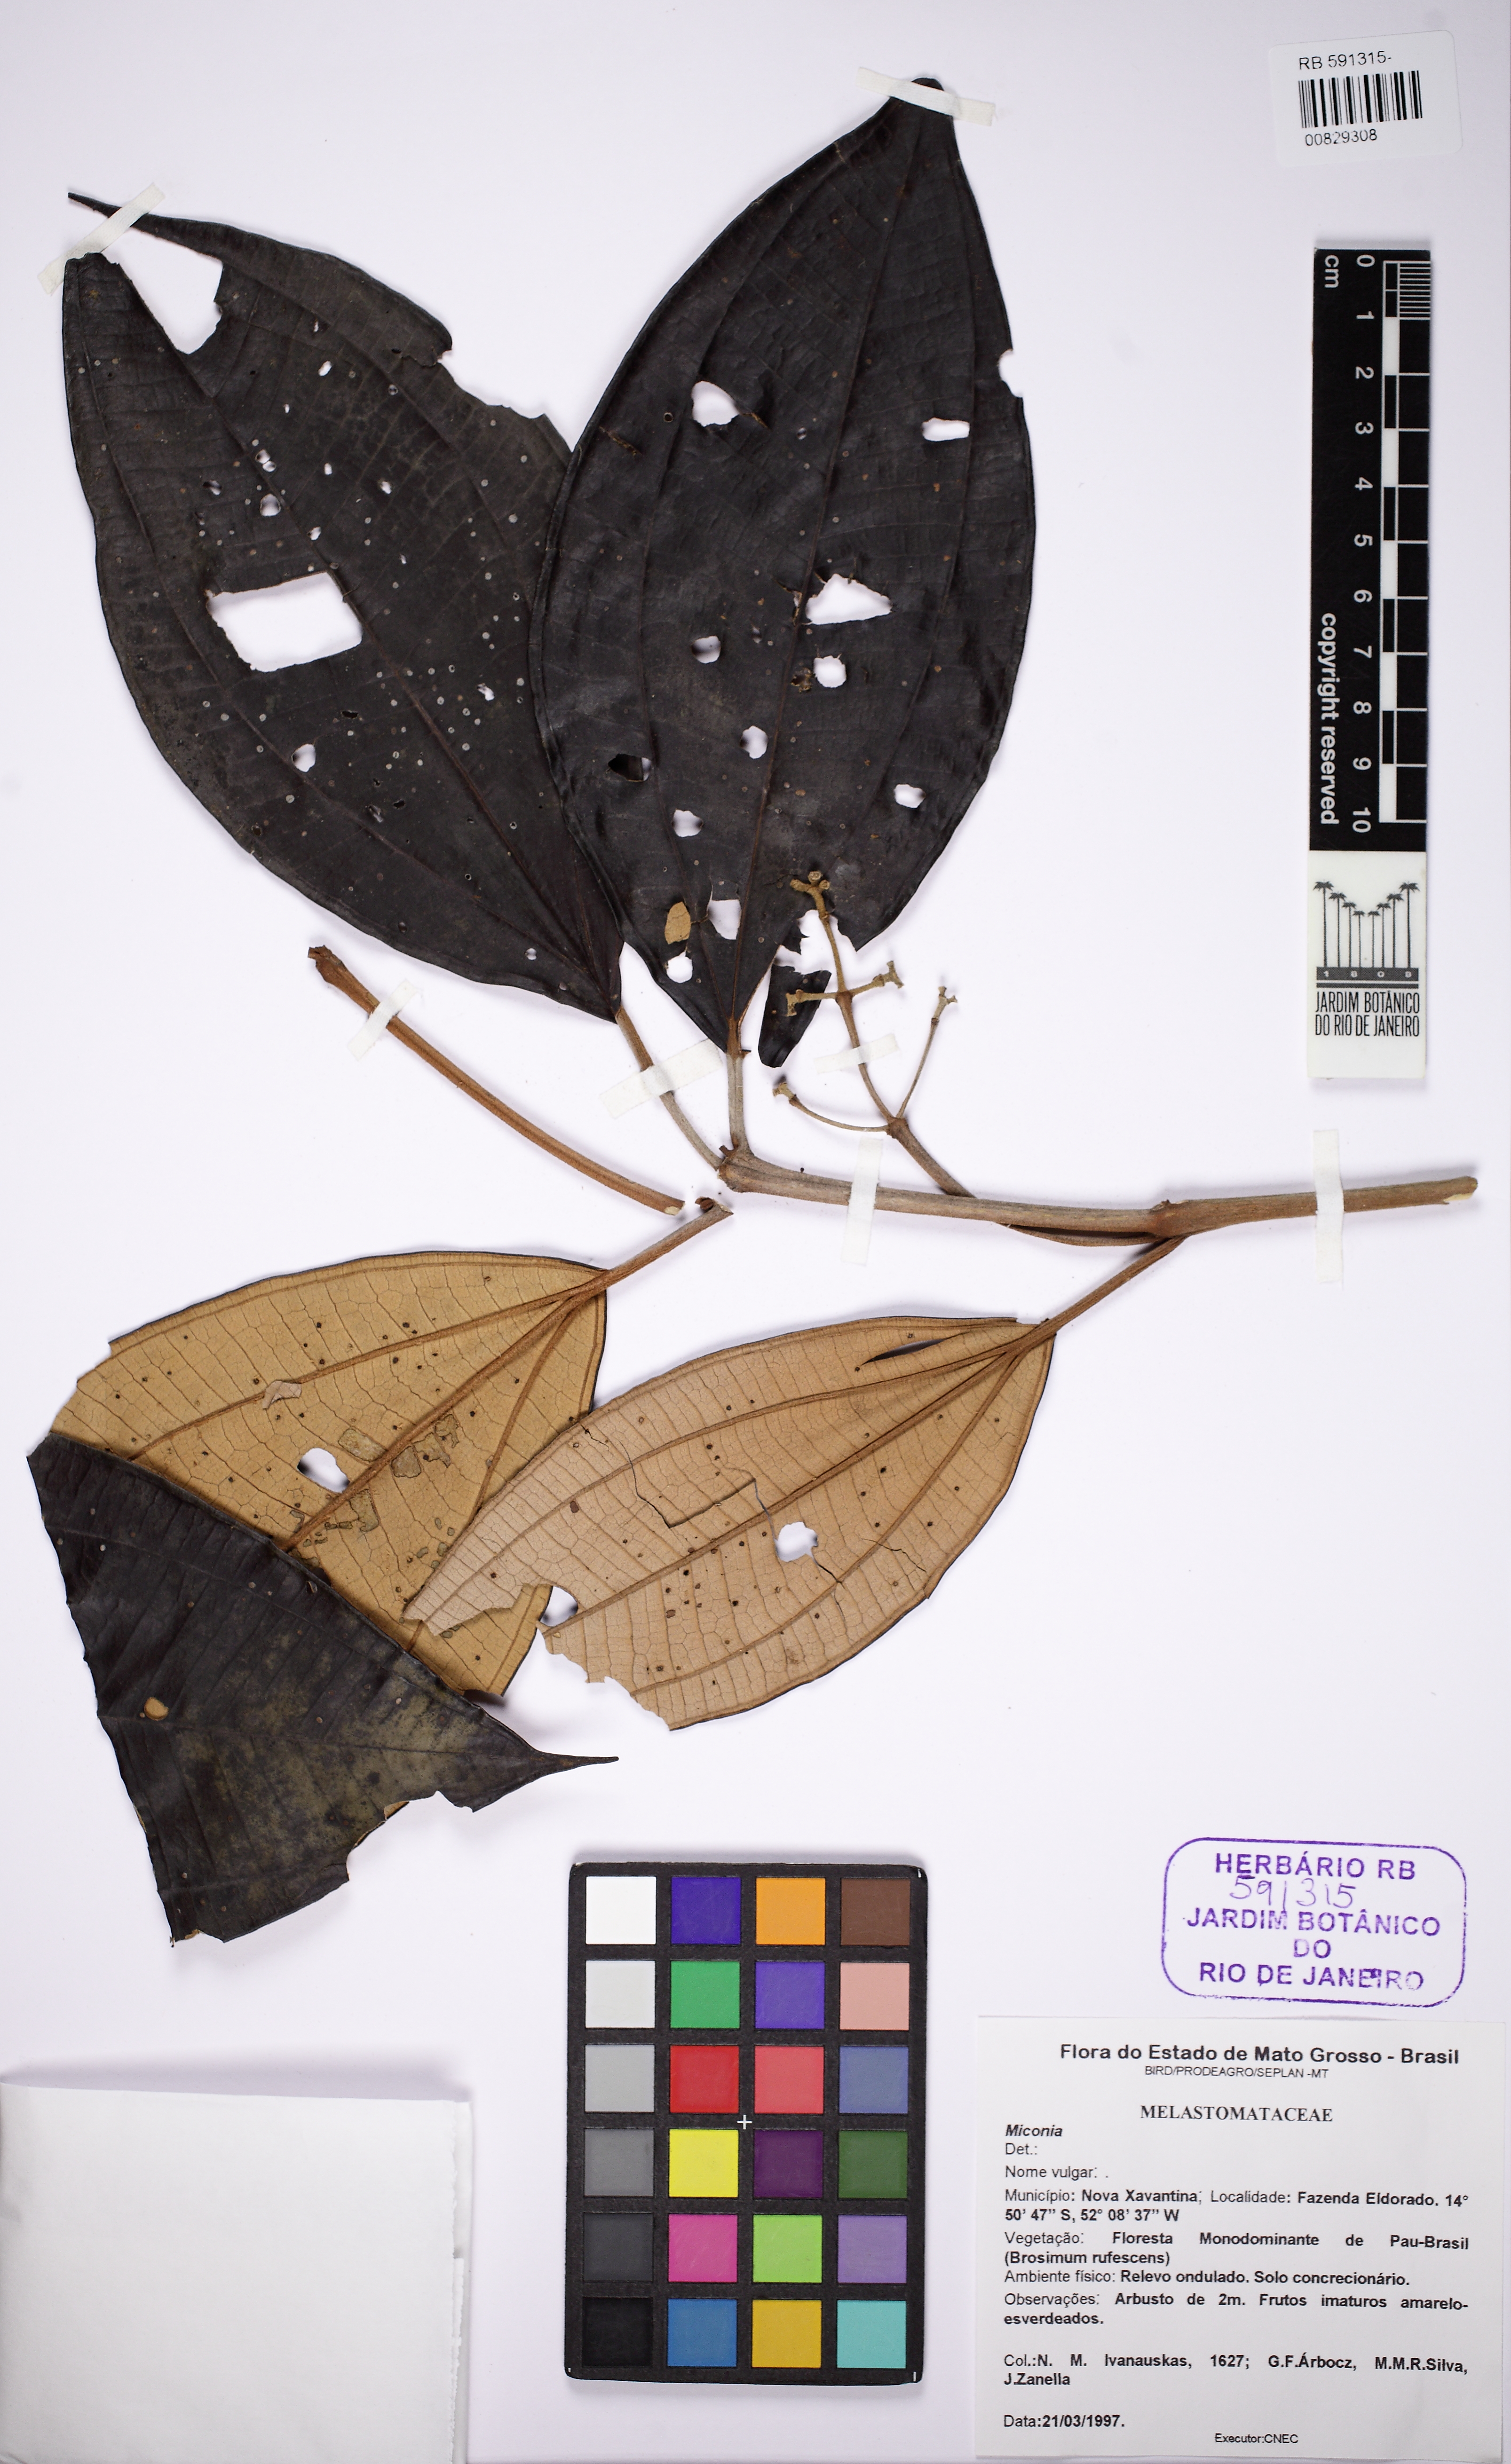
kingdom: Plantae
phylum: Tracheophyta
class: Magnoliopsida
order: Myrtales
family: Melastomataceae
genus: Miconia
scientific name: Miconia
